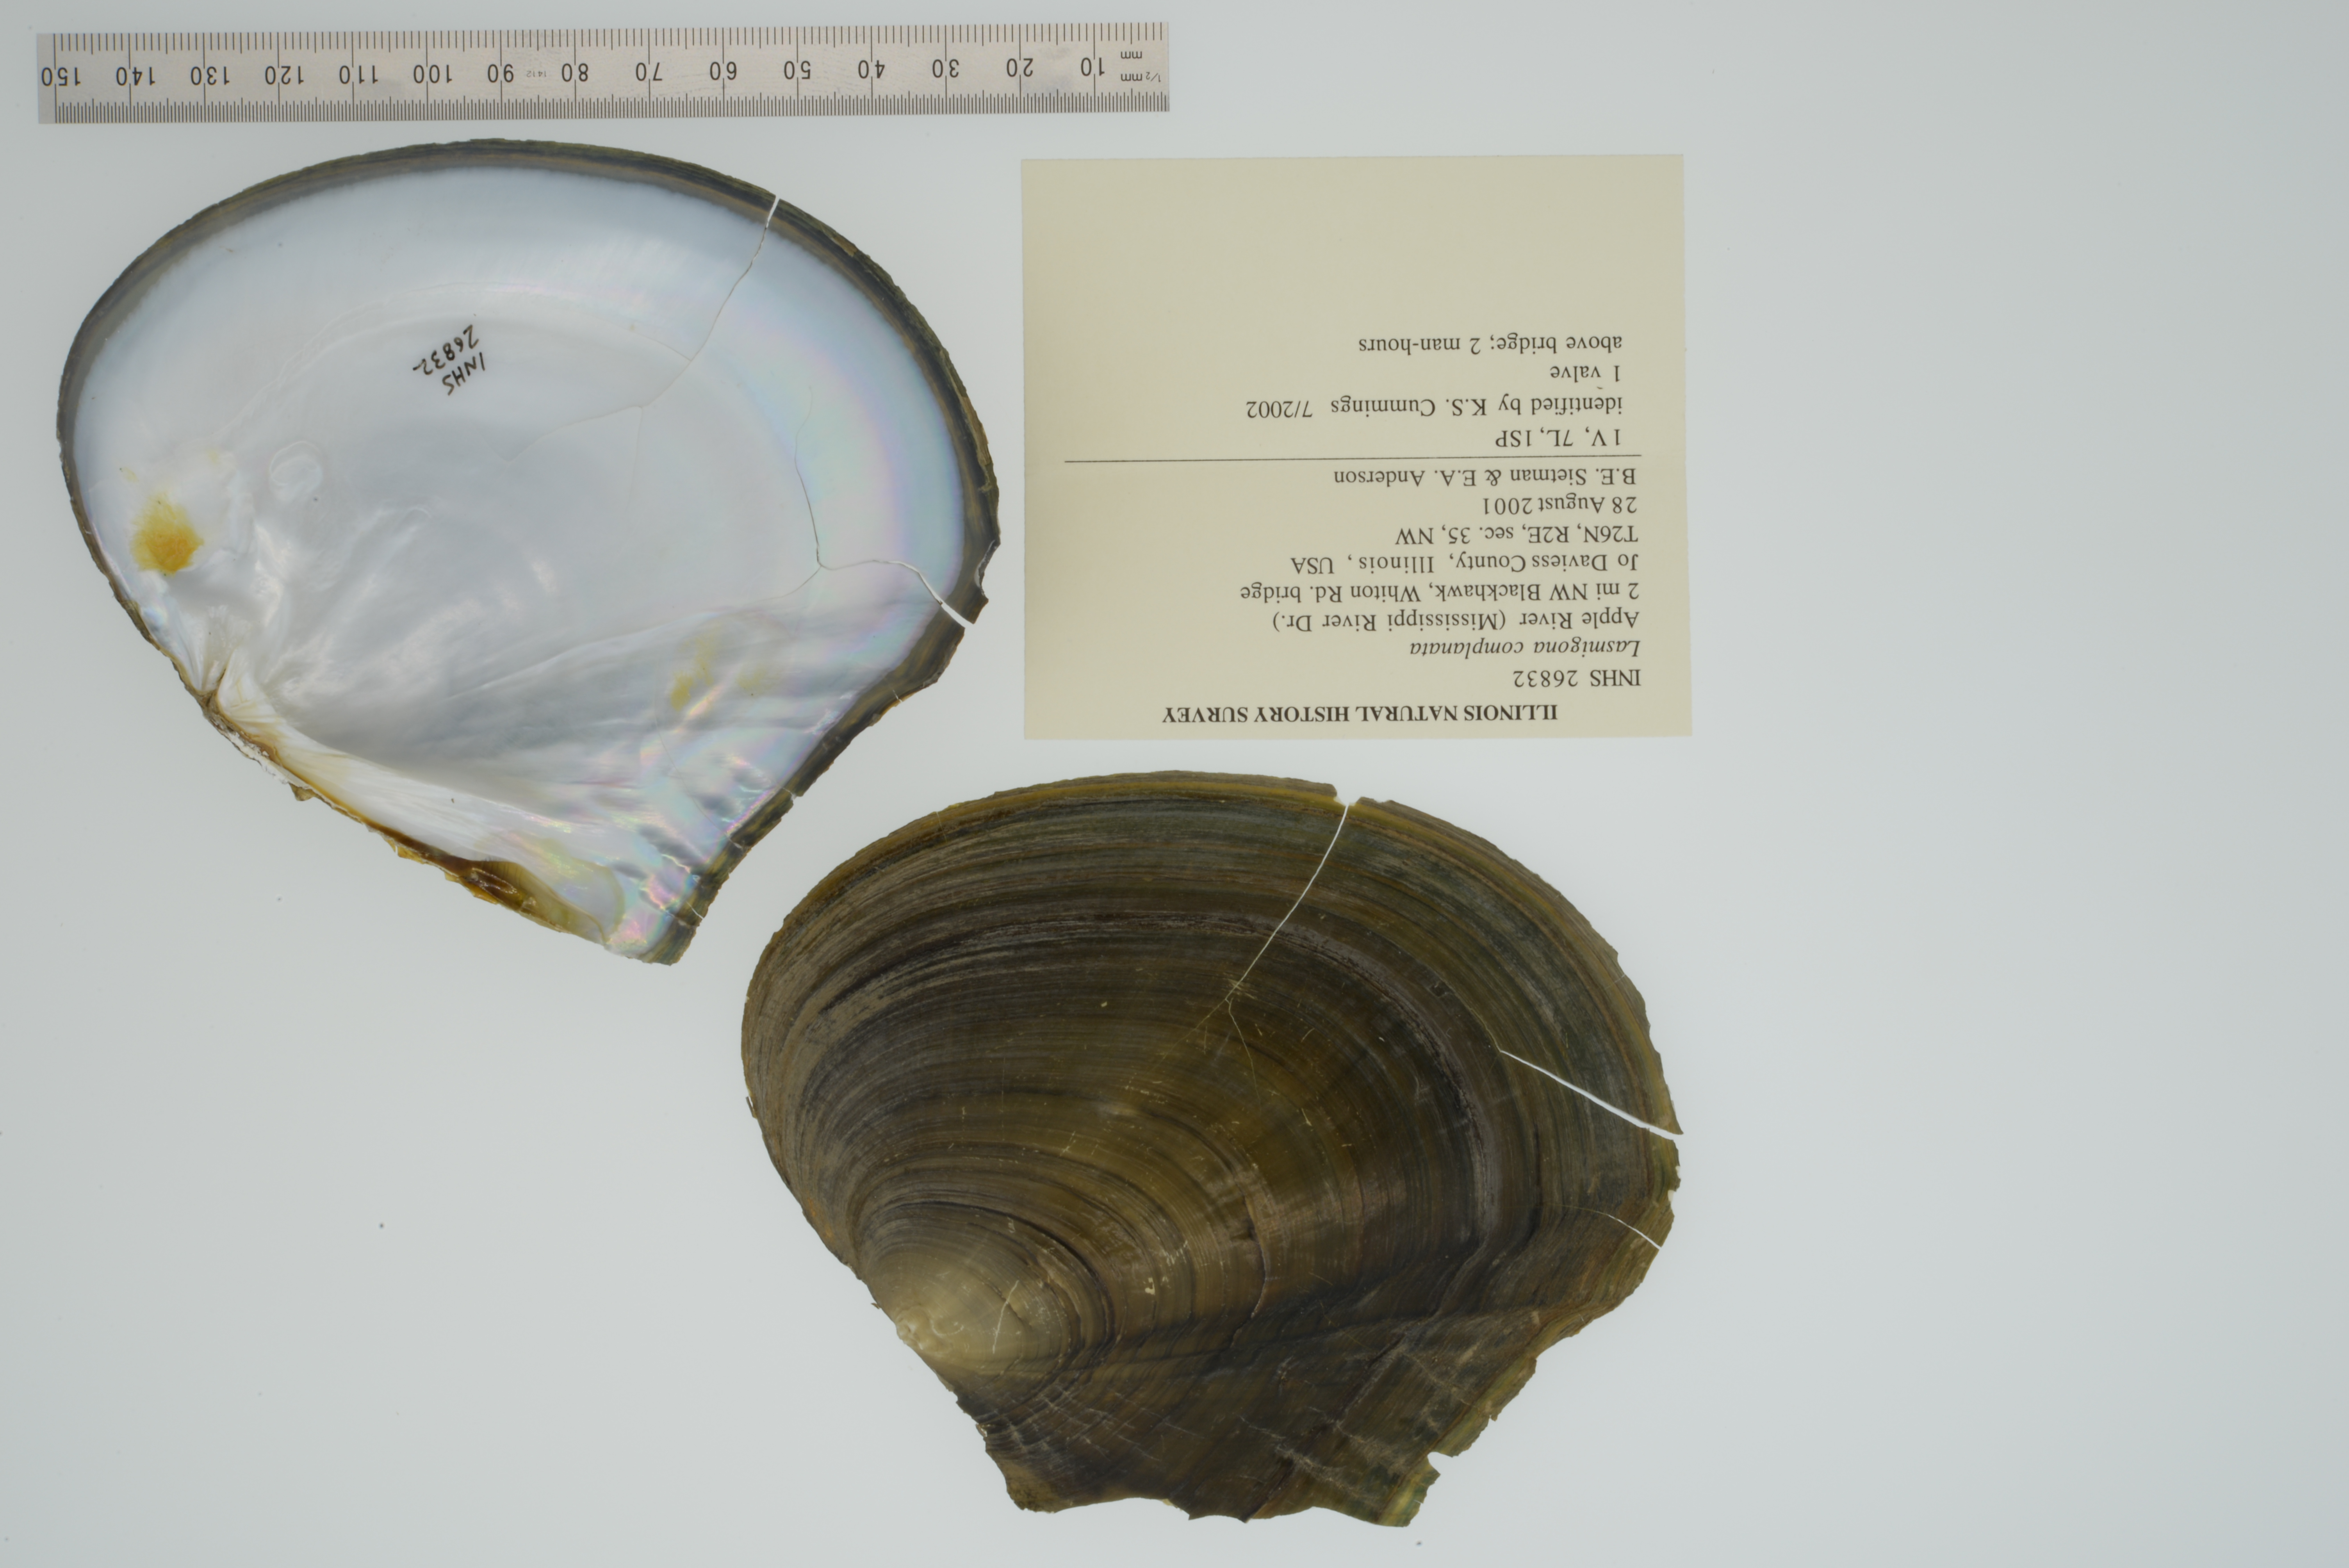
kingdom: Animalia
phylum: Mollusca
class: Bivalvia
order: Unionida
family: Unionidae
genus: Lasmigona
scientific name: Lasmigona complanata
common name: White heelsplitter
